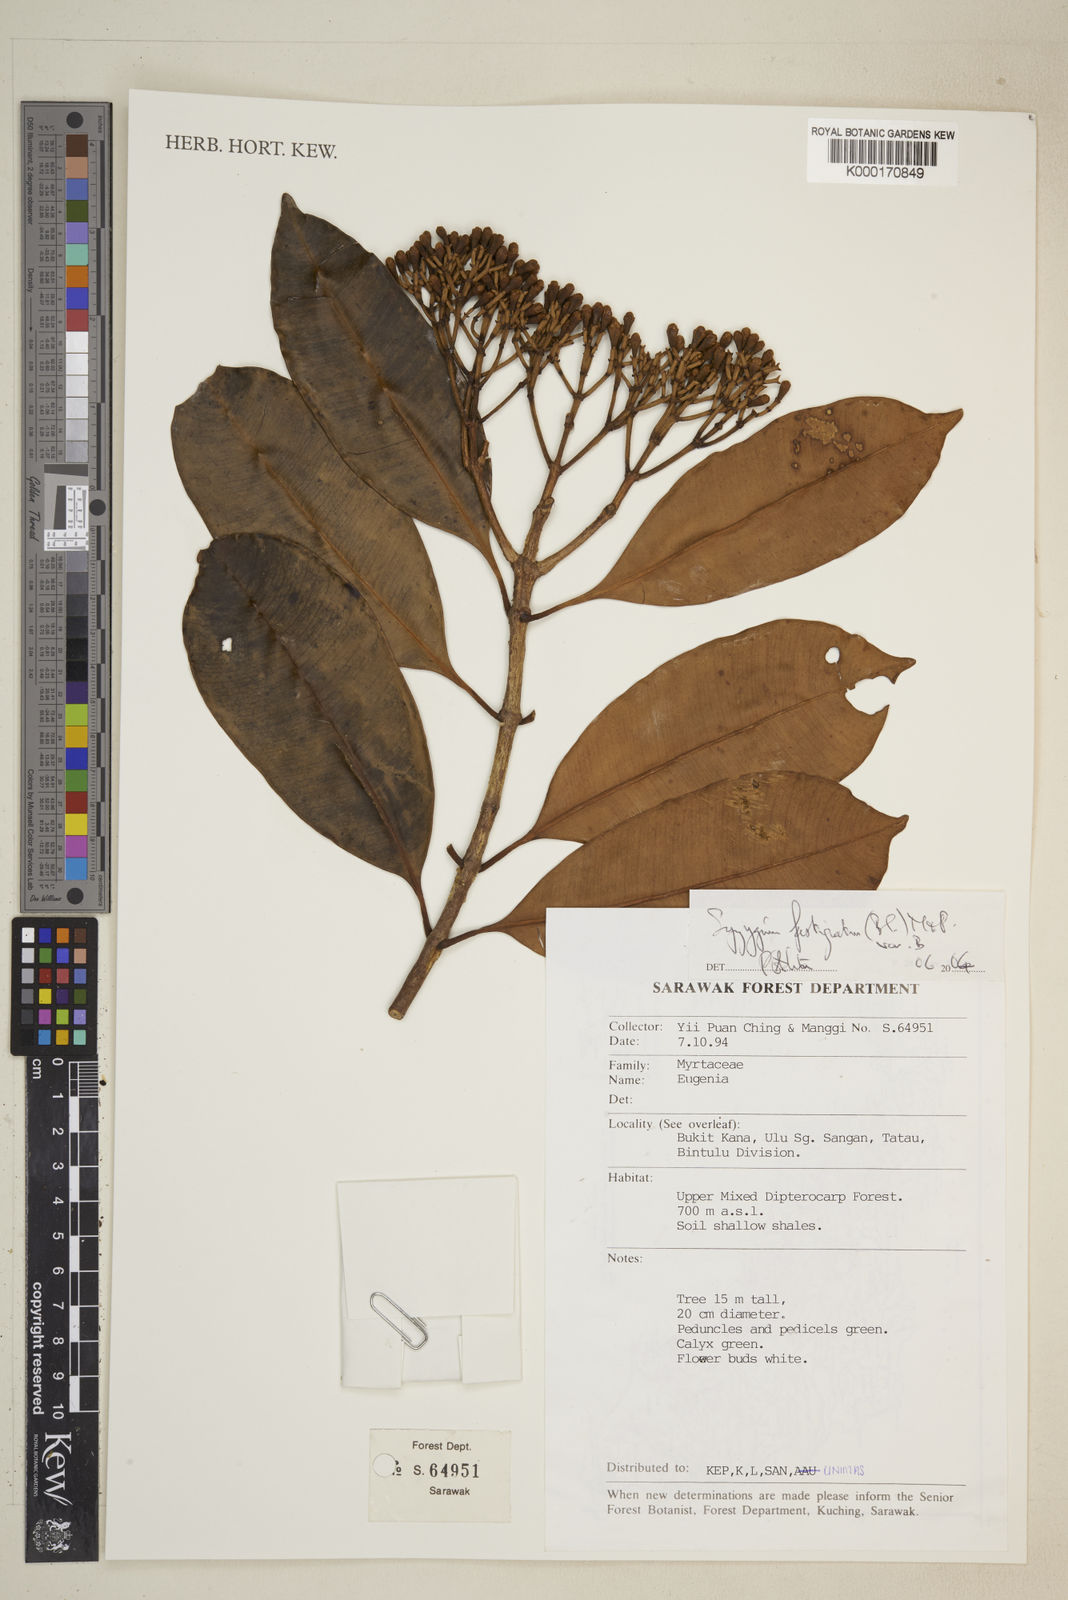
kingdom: Plantae
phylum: Tracheophyta
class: Magnoliopsida
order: Myrtales
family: Myrtaceae
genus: Syzygium
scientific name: Syzygium fastigiatum
